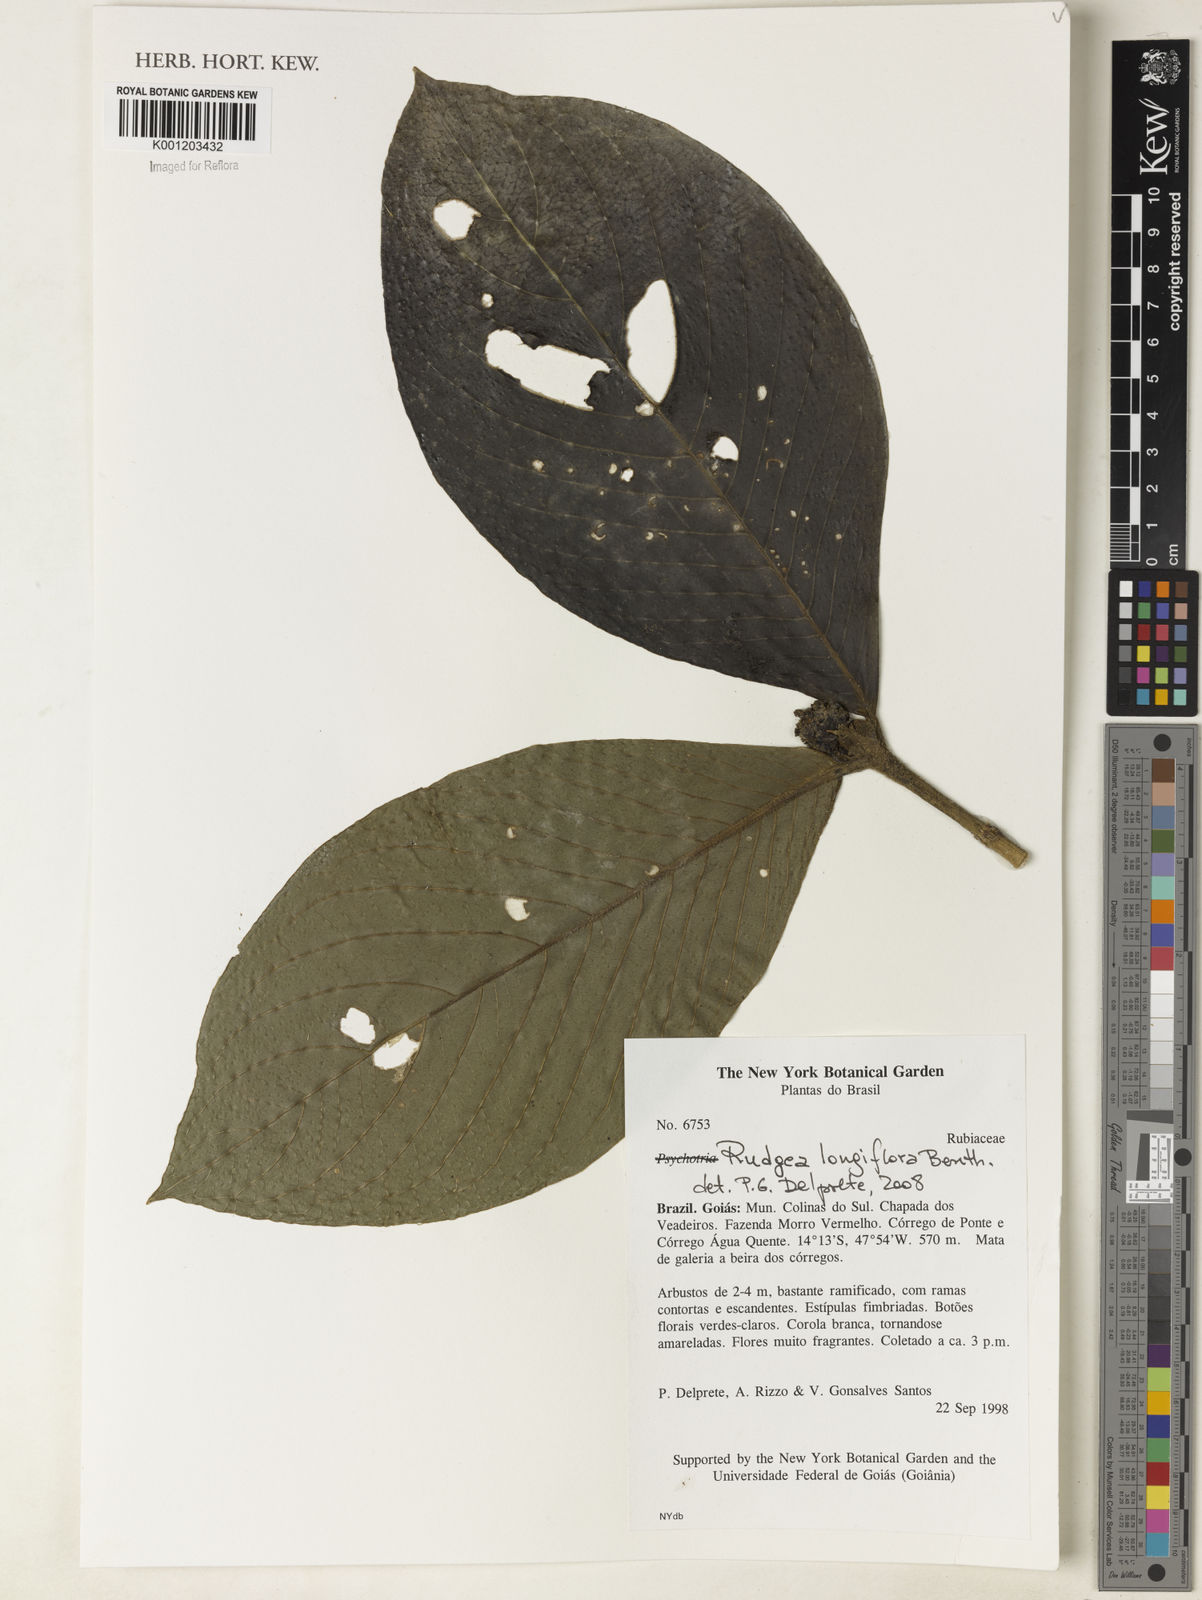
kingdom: Plantae
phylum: Tracheophyta
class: Magnoliopsida
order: Gentianales
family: Rubiaceae
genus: Rudgea
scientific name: Rudgea longiflora
